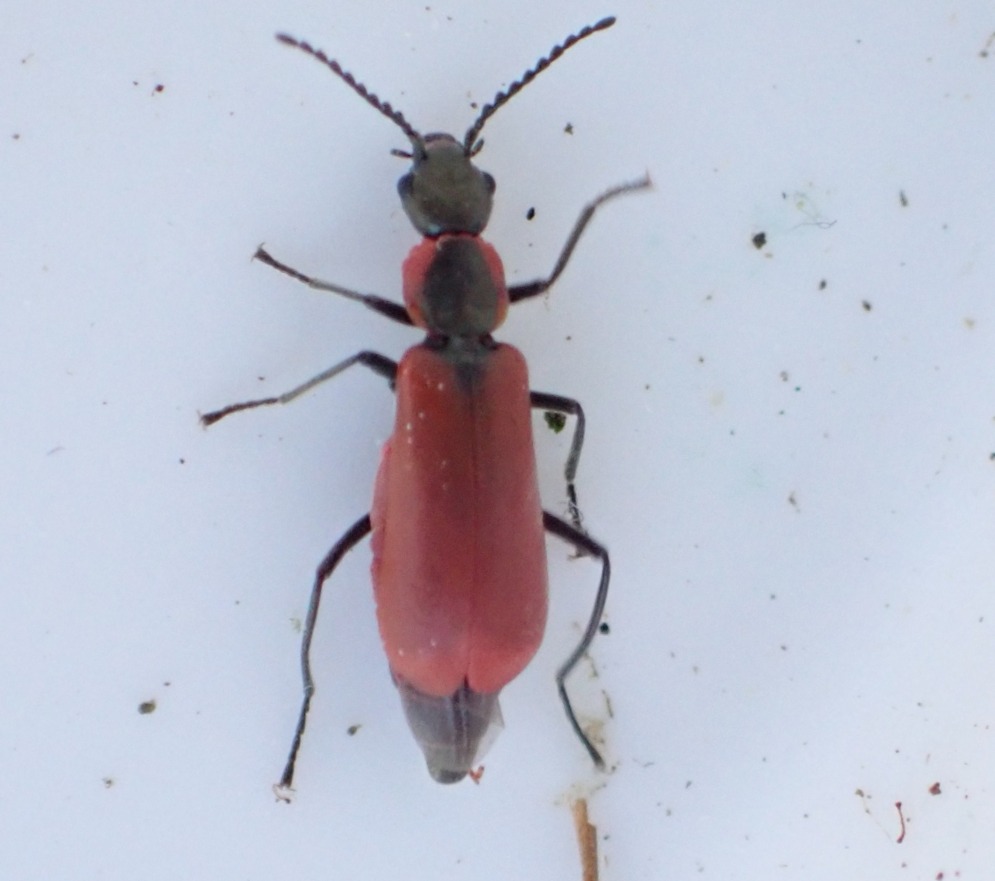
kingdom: Animalia
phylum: Arthropoda
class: Insecta
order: Coleoptera
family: Melyridae
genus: Anthocomus
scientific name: Anthocomus rufus
